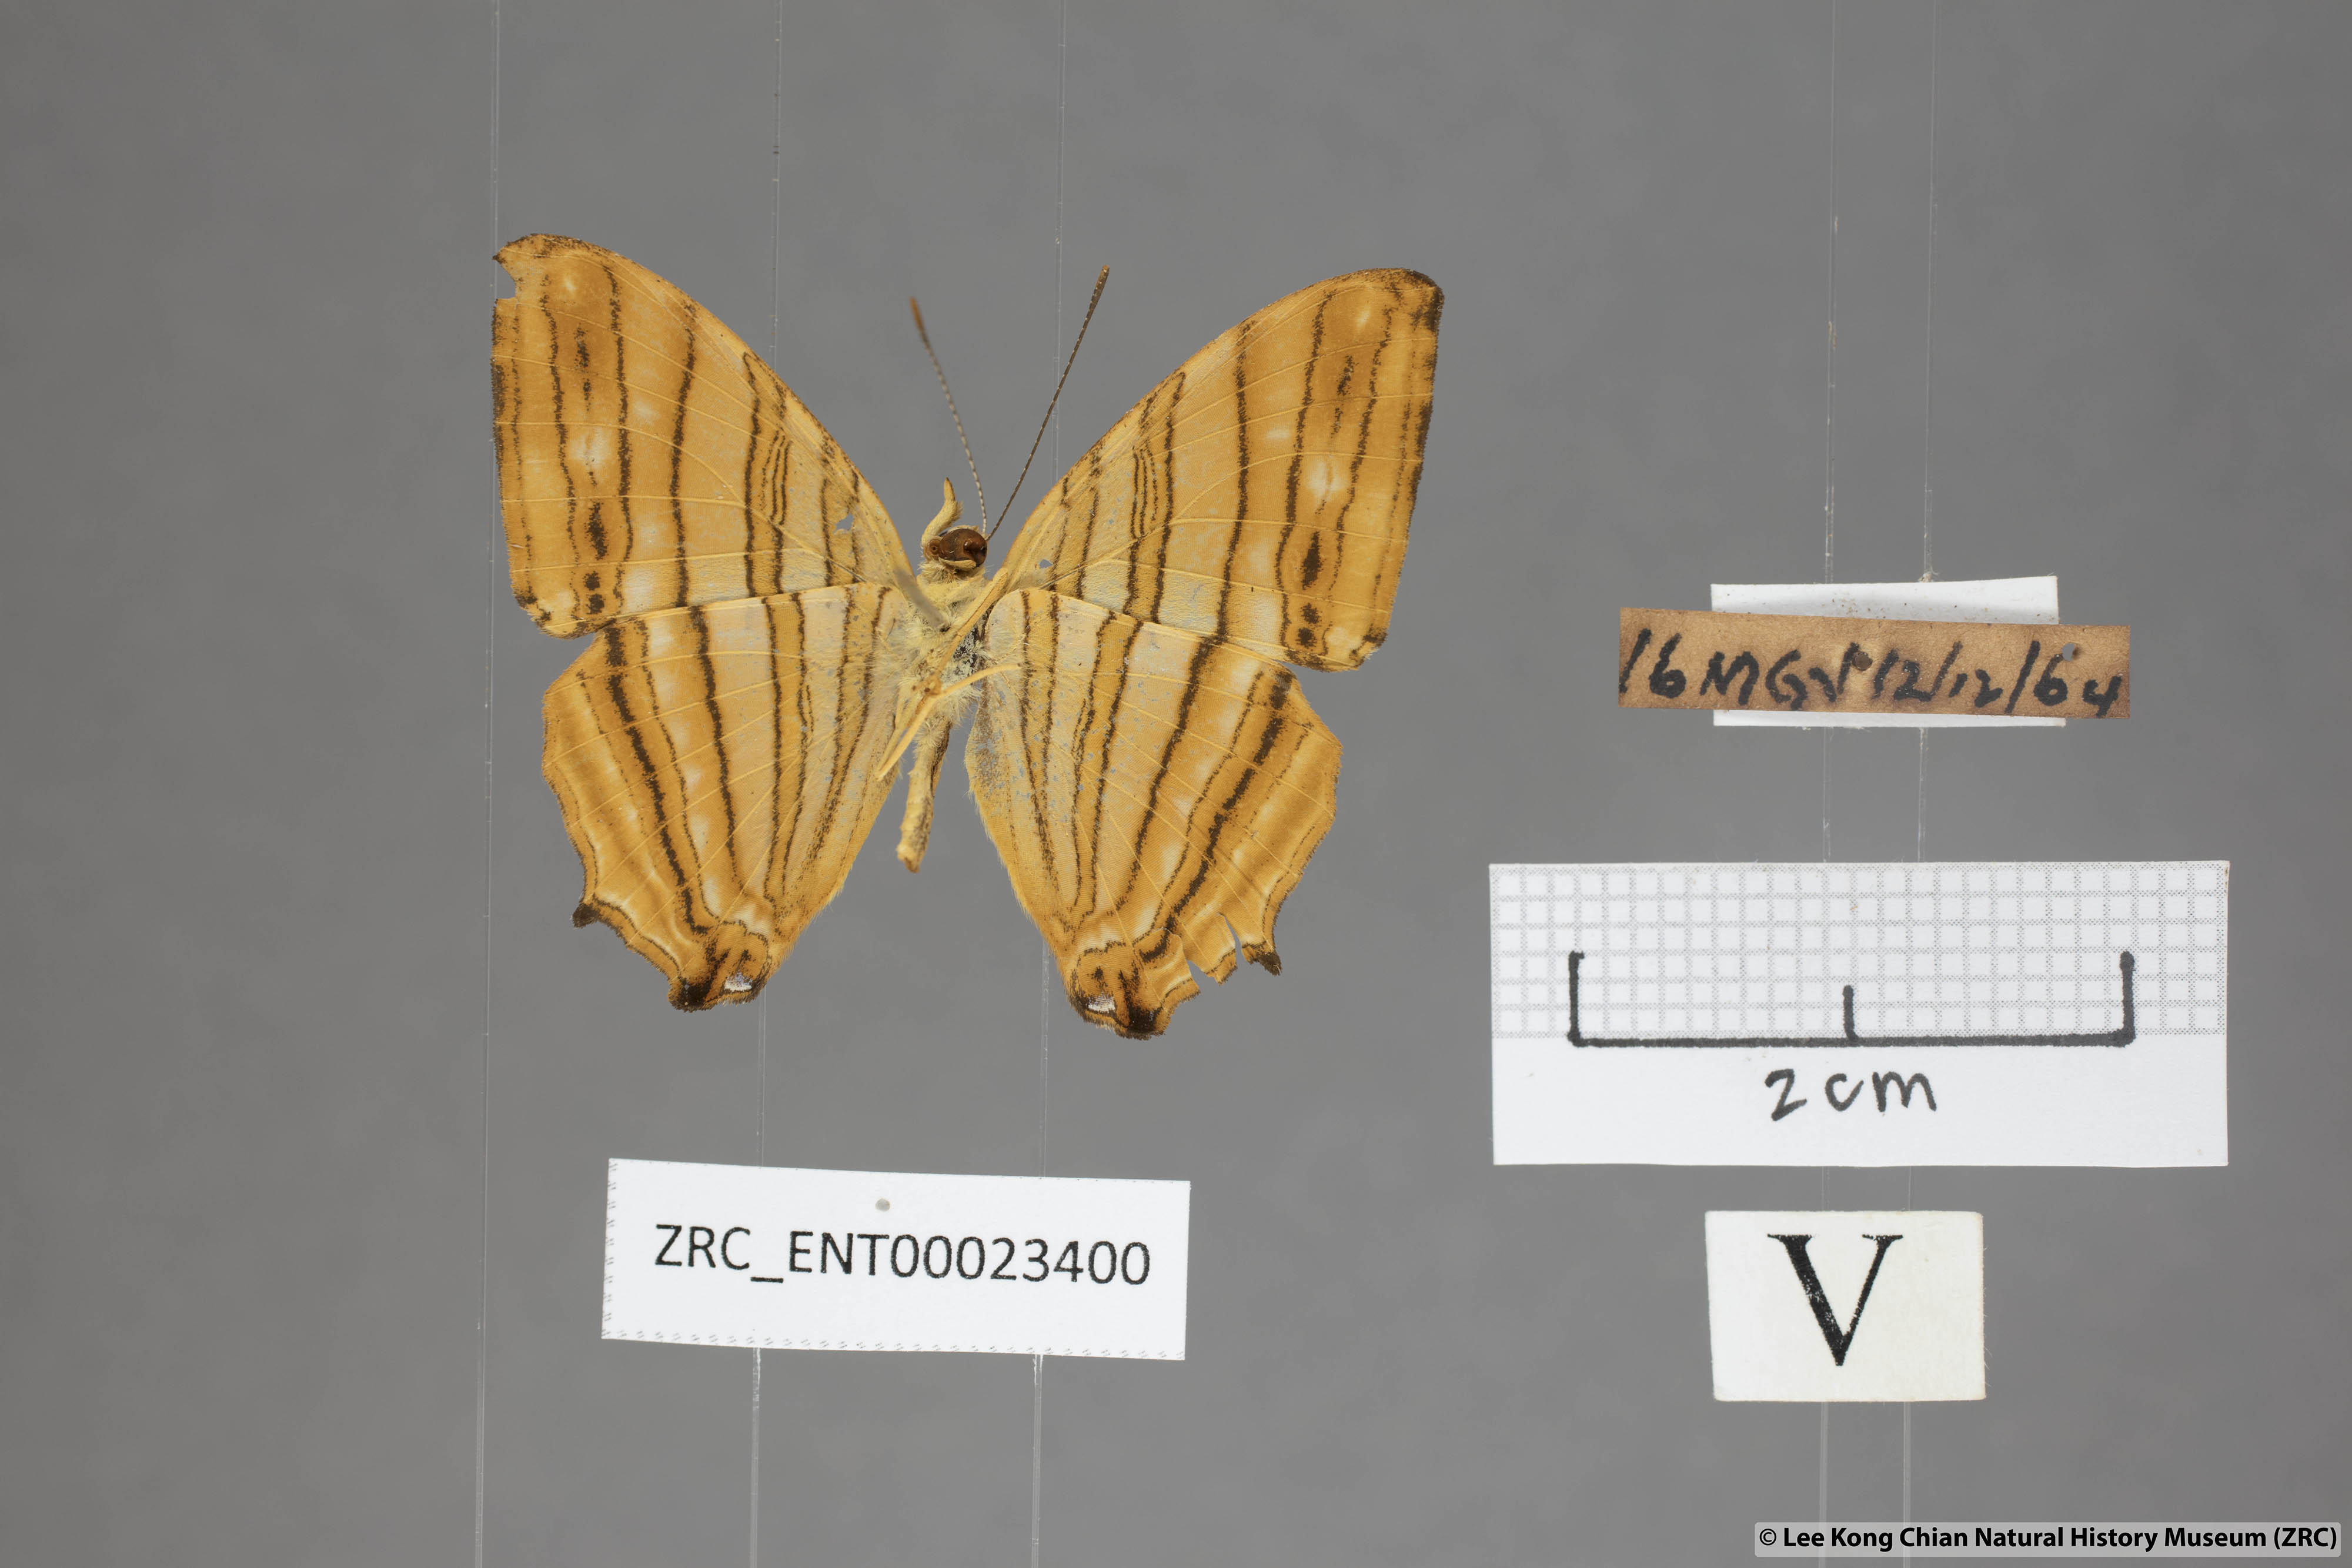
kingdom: Animalia
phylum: Arthropoda
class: Insecta
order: Lepidoptera
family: Nymphalidae
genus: Chersonesia
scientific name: Chersonesia risa
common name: Common maplet
